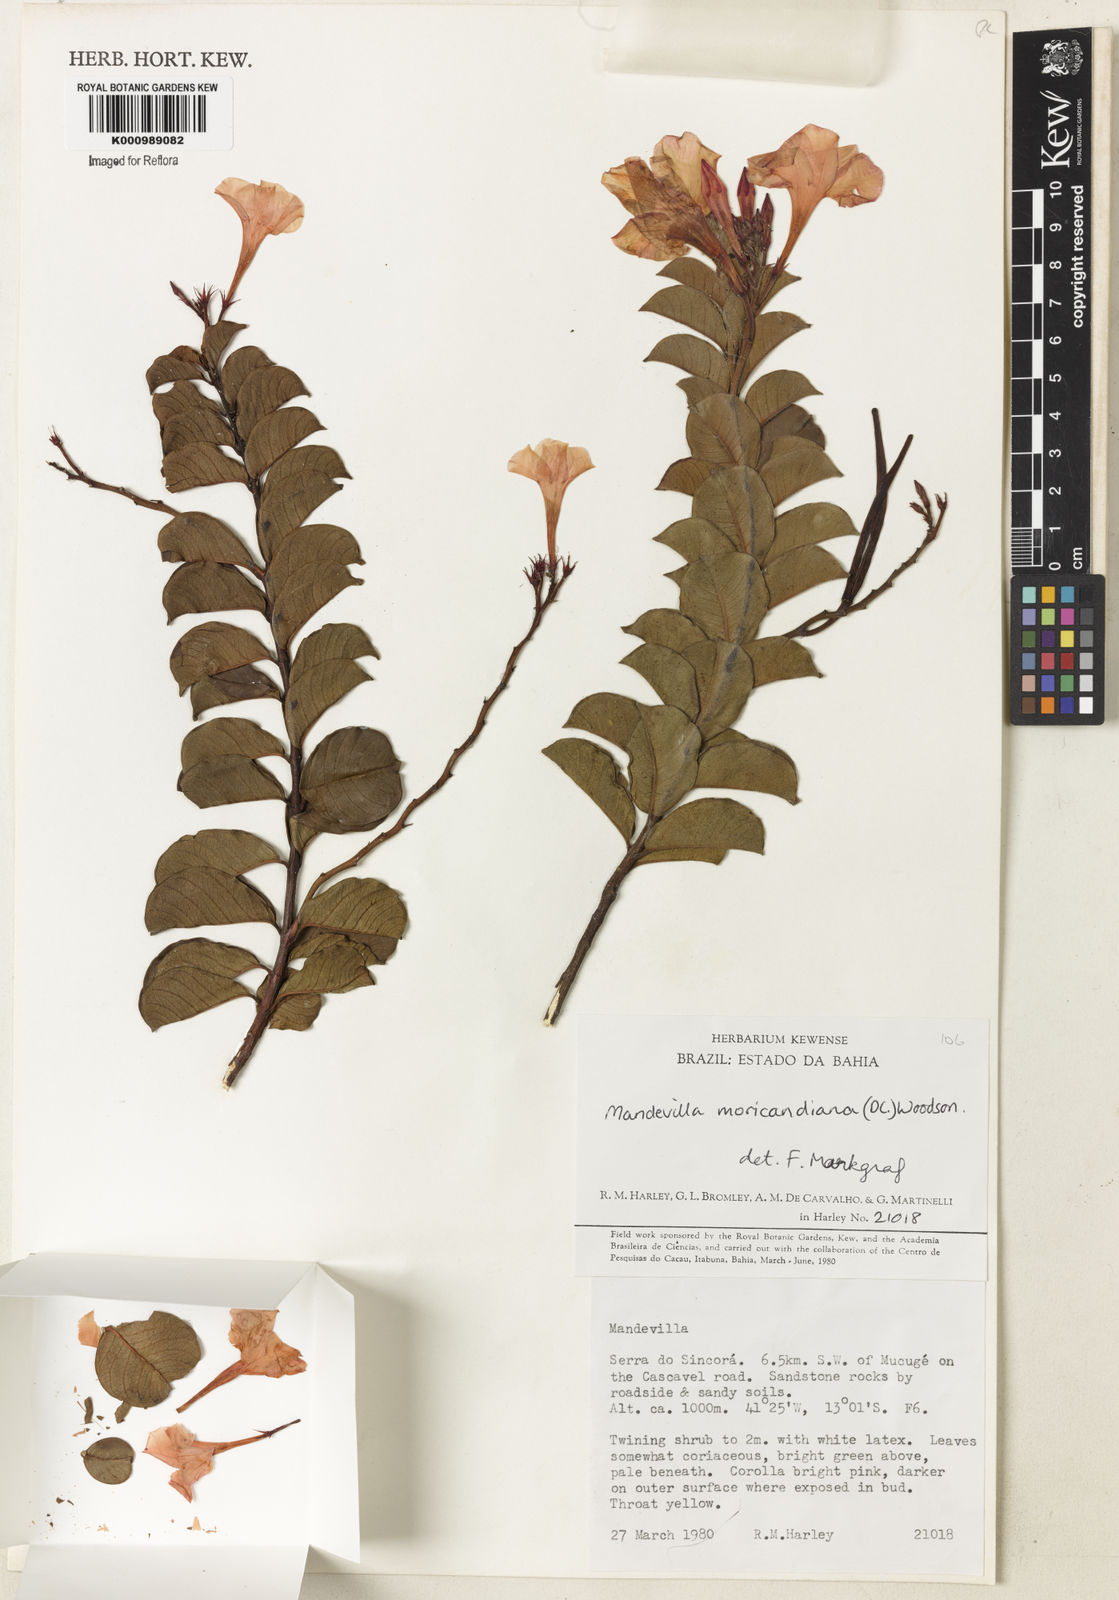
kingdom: Plantae
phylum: Tracheophyta
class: Magnoliopsida
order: Gentianales
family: Apocynaceae
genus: Mandevilla
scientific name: Mandevilla bahiensis
